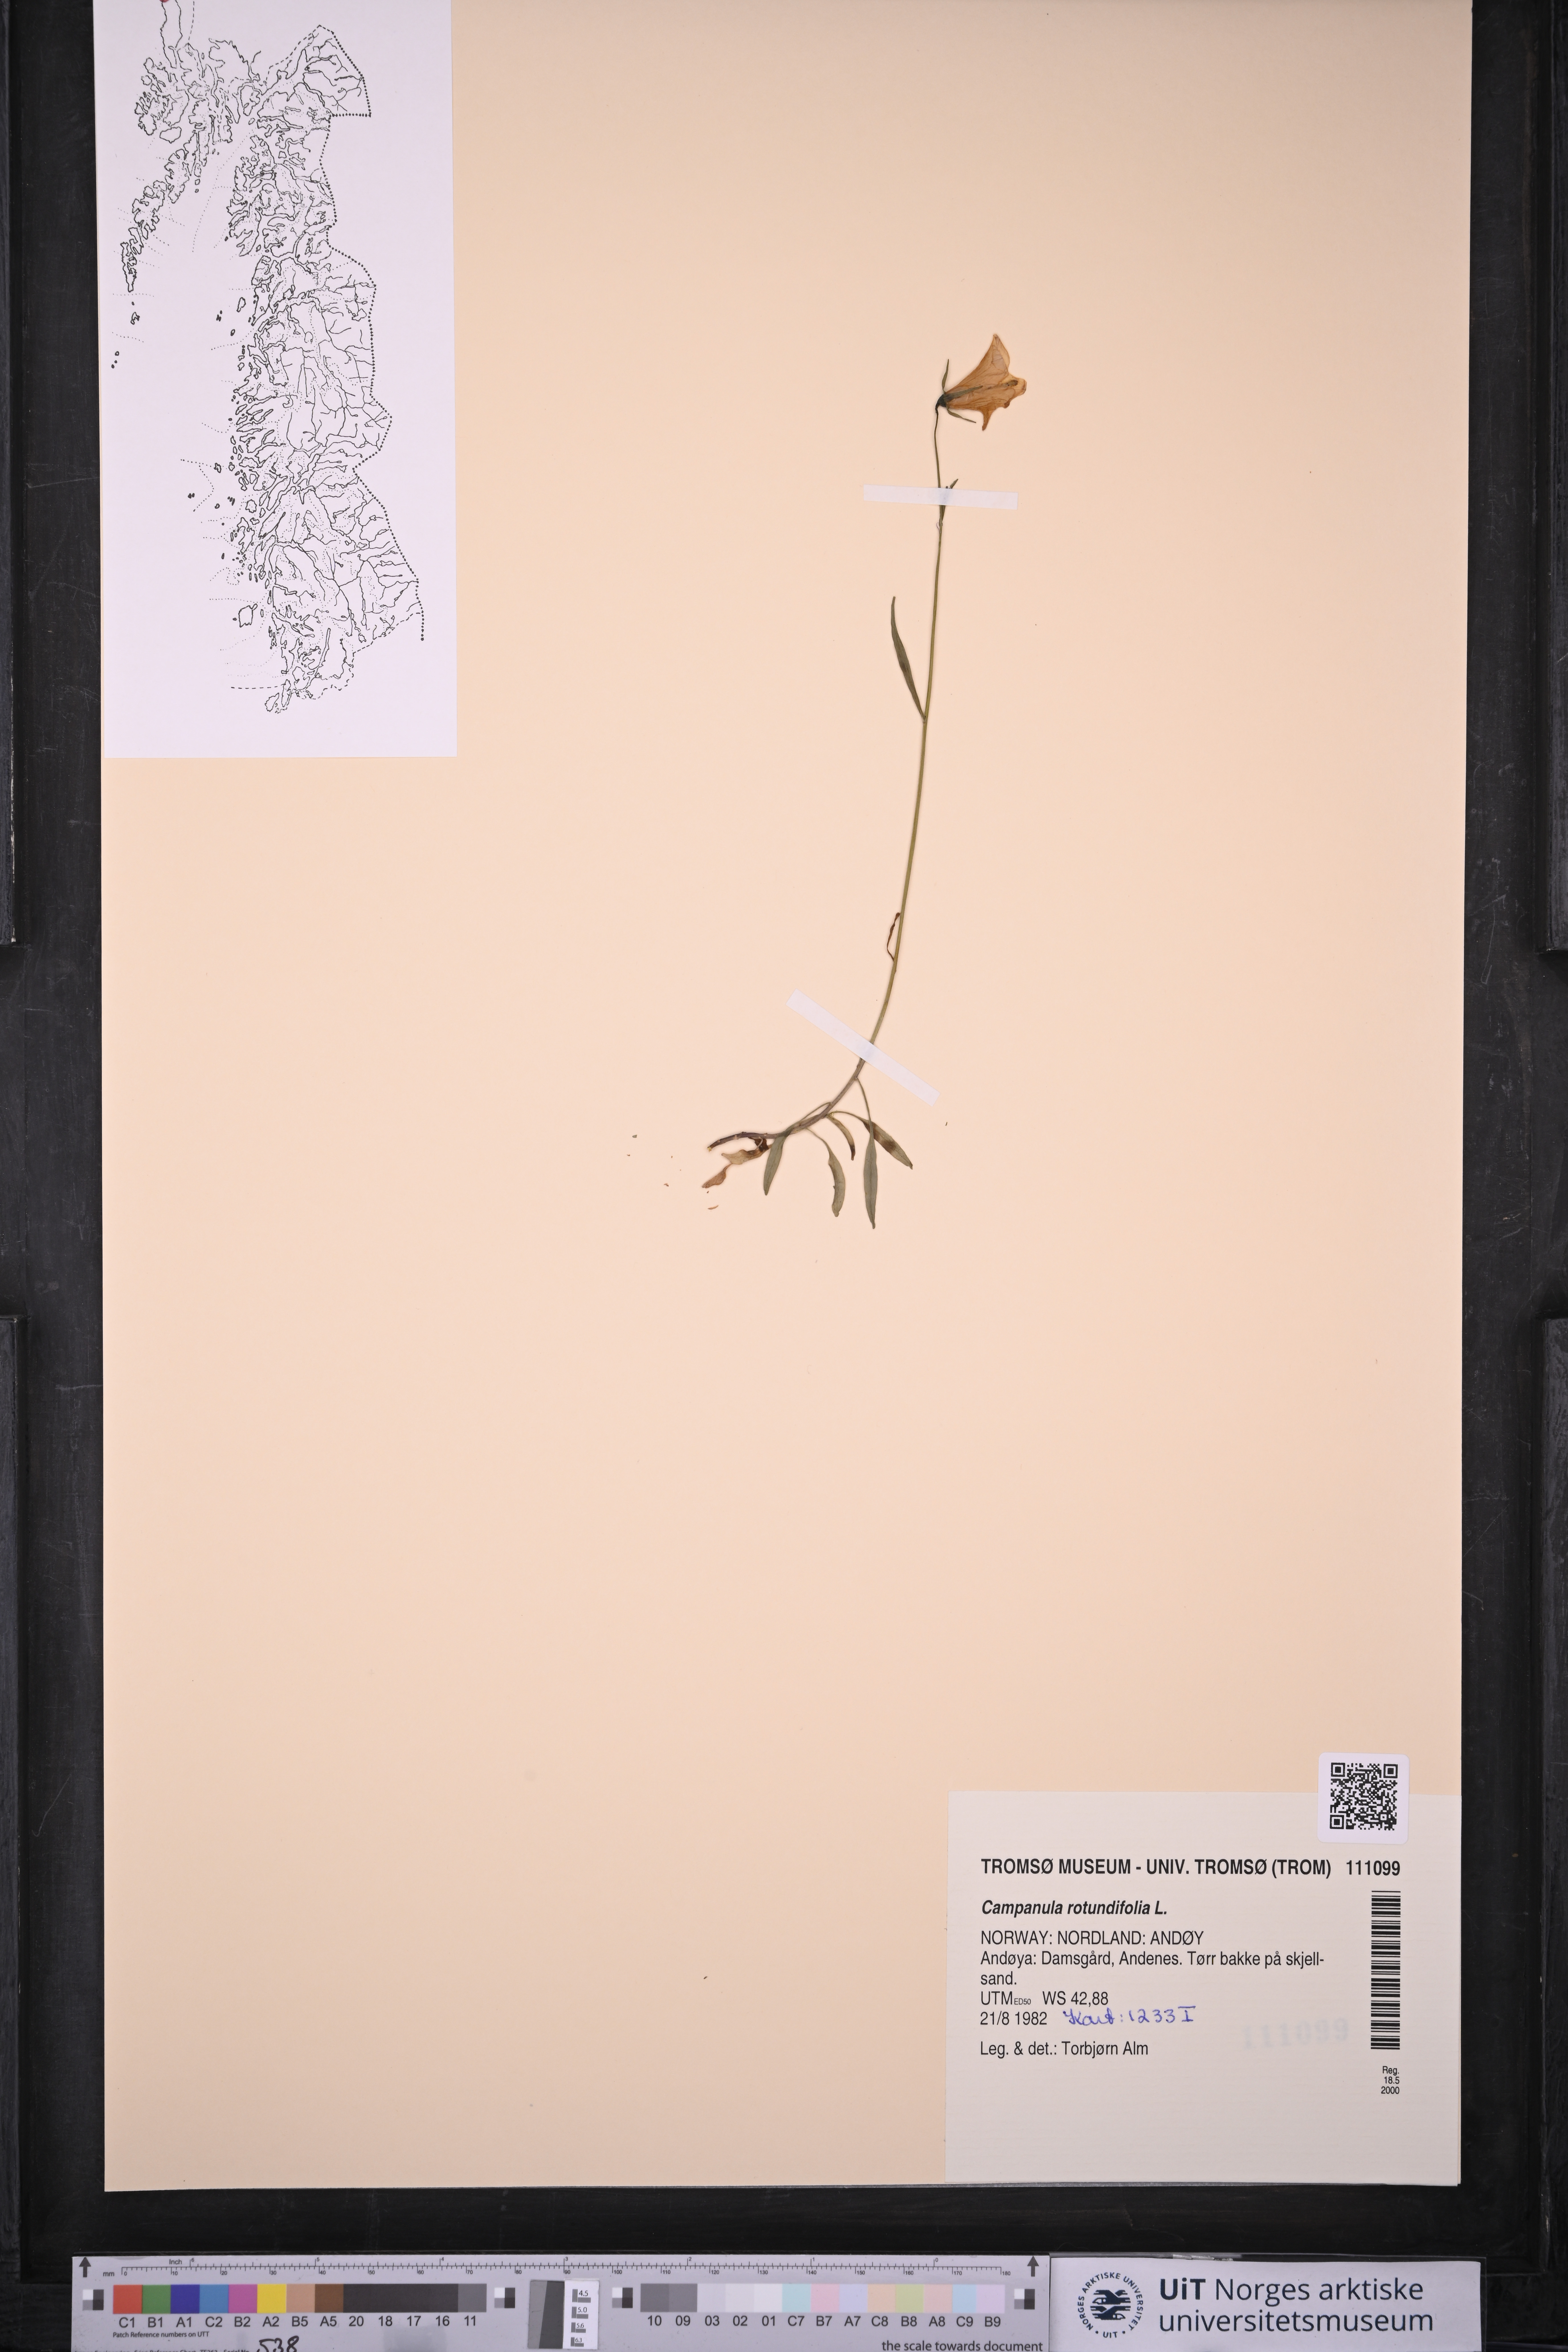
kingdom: Plantae
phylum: Tracheophyta
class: Magnoliopsida
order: Asterales
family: Campanulaceae
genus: Campanula
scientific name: Campanula rotundifolia
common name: Harebell
